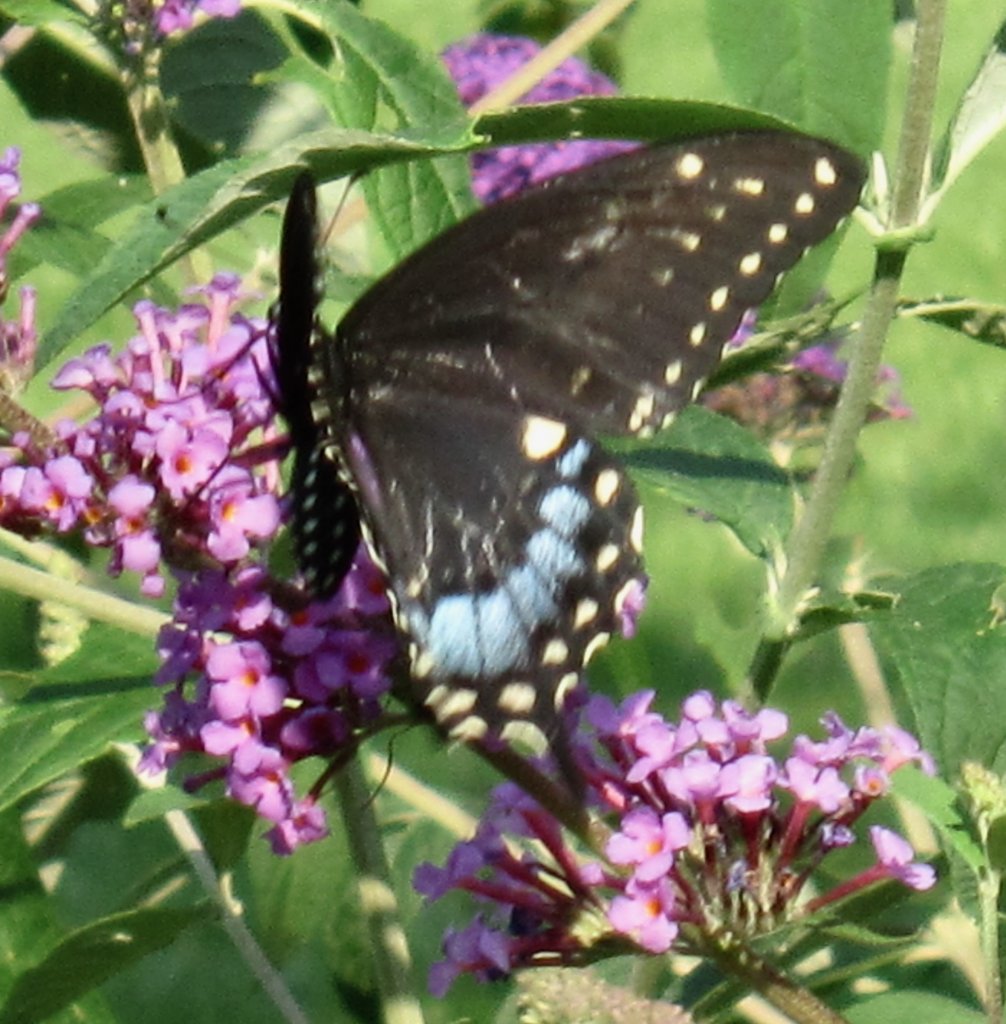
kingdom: Animalia
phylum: Arthropoda
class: Insecta
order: Lepidoptera
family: Papilionidae
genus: Papilio
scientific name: Papilio polyxenes
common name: Black Swallowtail
